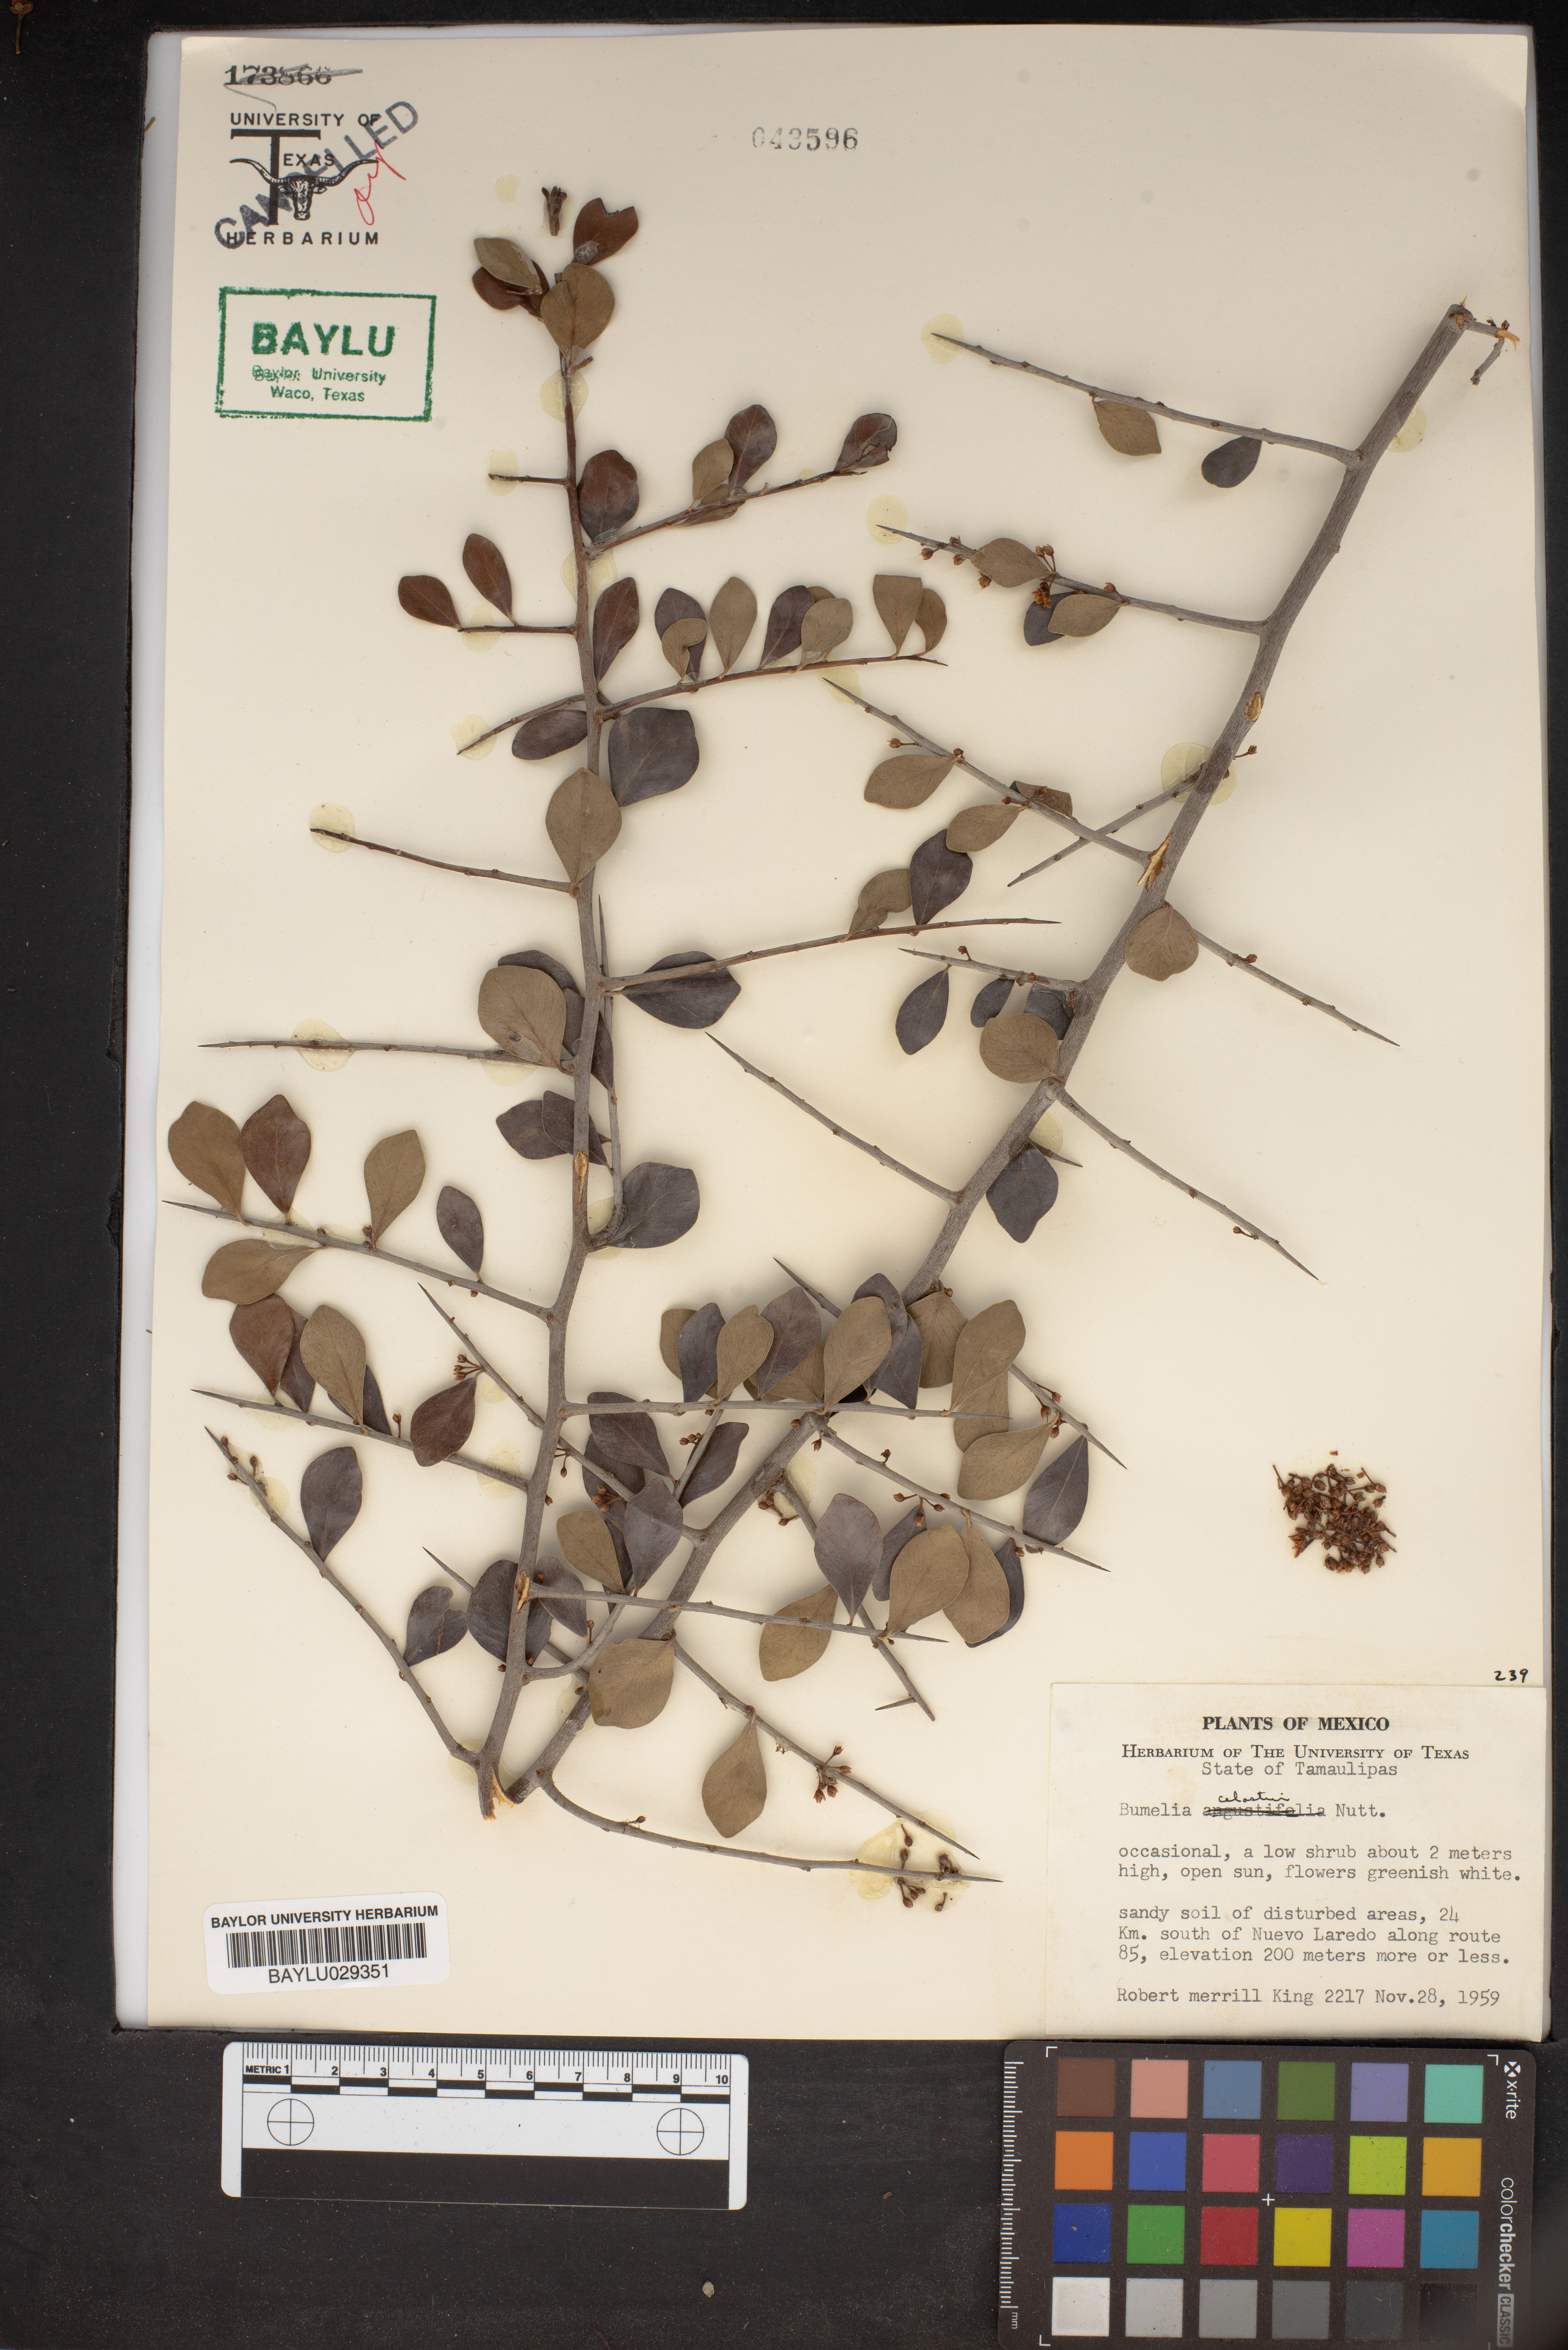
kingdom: Plantae
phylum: Tracheophyta
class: Magnoliopsida
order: Ericales
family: Sapotaceae
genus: Sideroxylon
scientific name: Sideroxylon celastrinum
